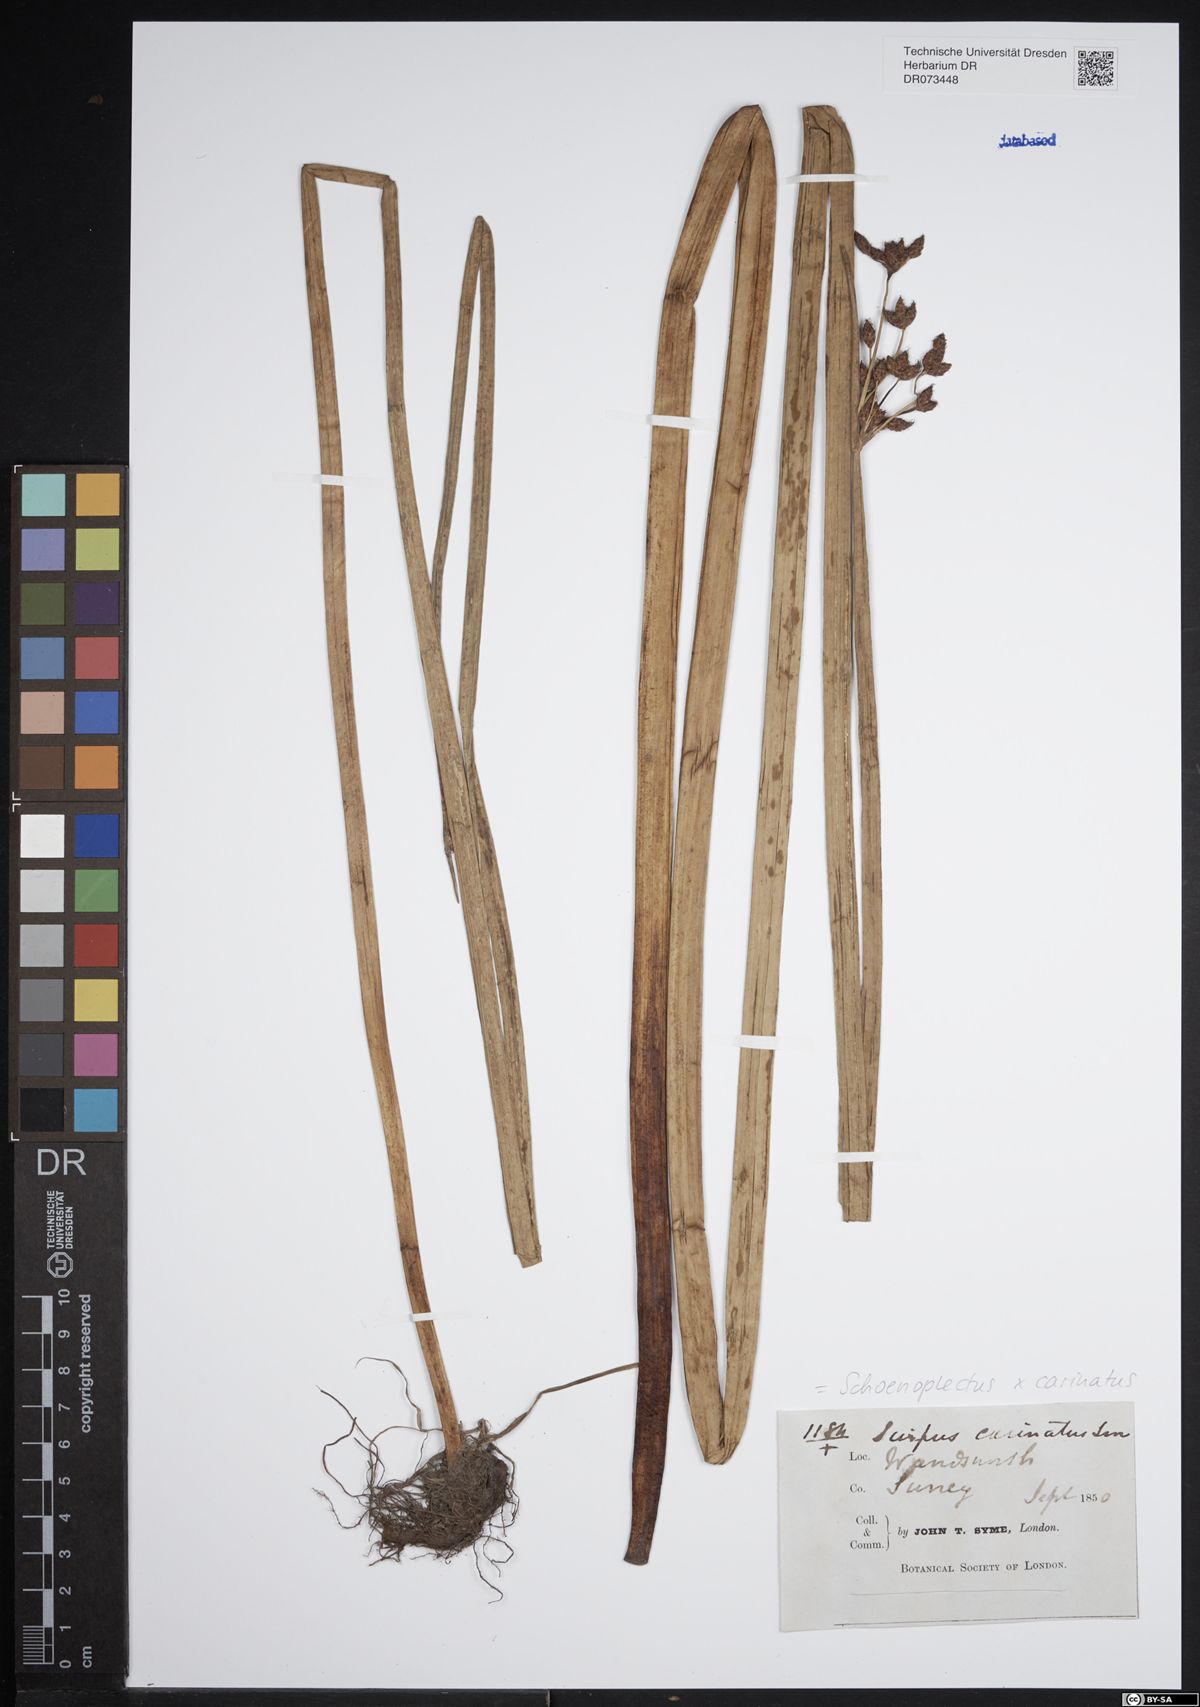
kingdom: Plantae
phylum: Tracheophyta
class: Liliopsida
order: Poales
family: Cyperaceae
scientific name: Cyperaceae
